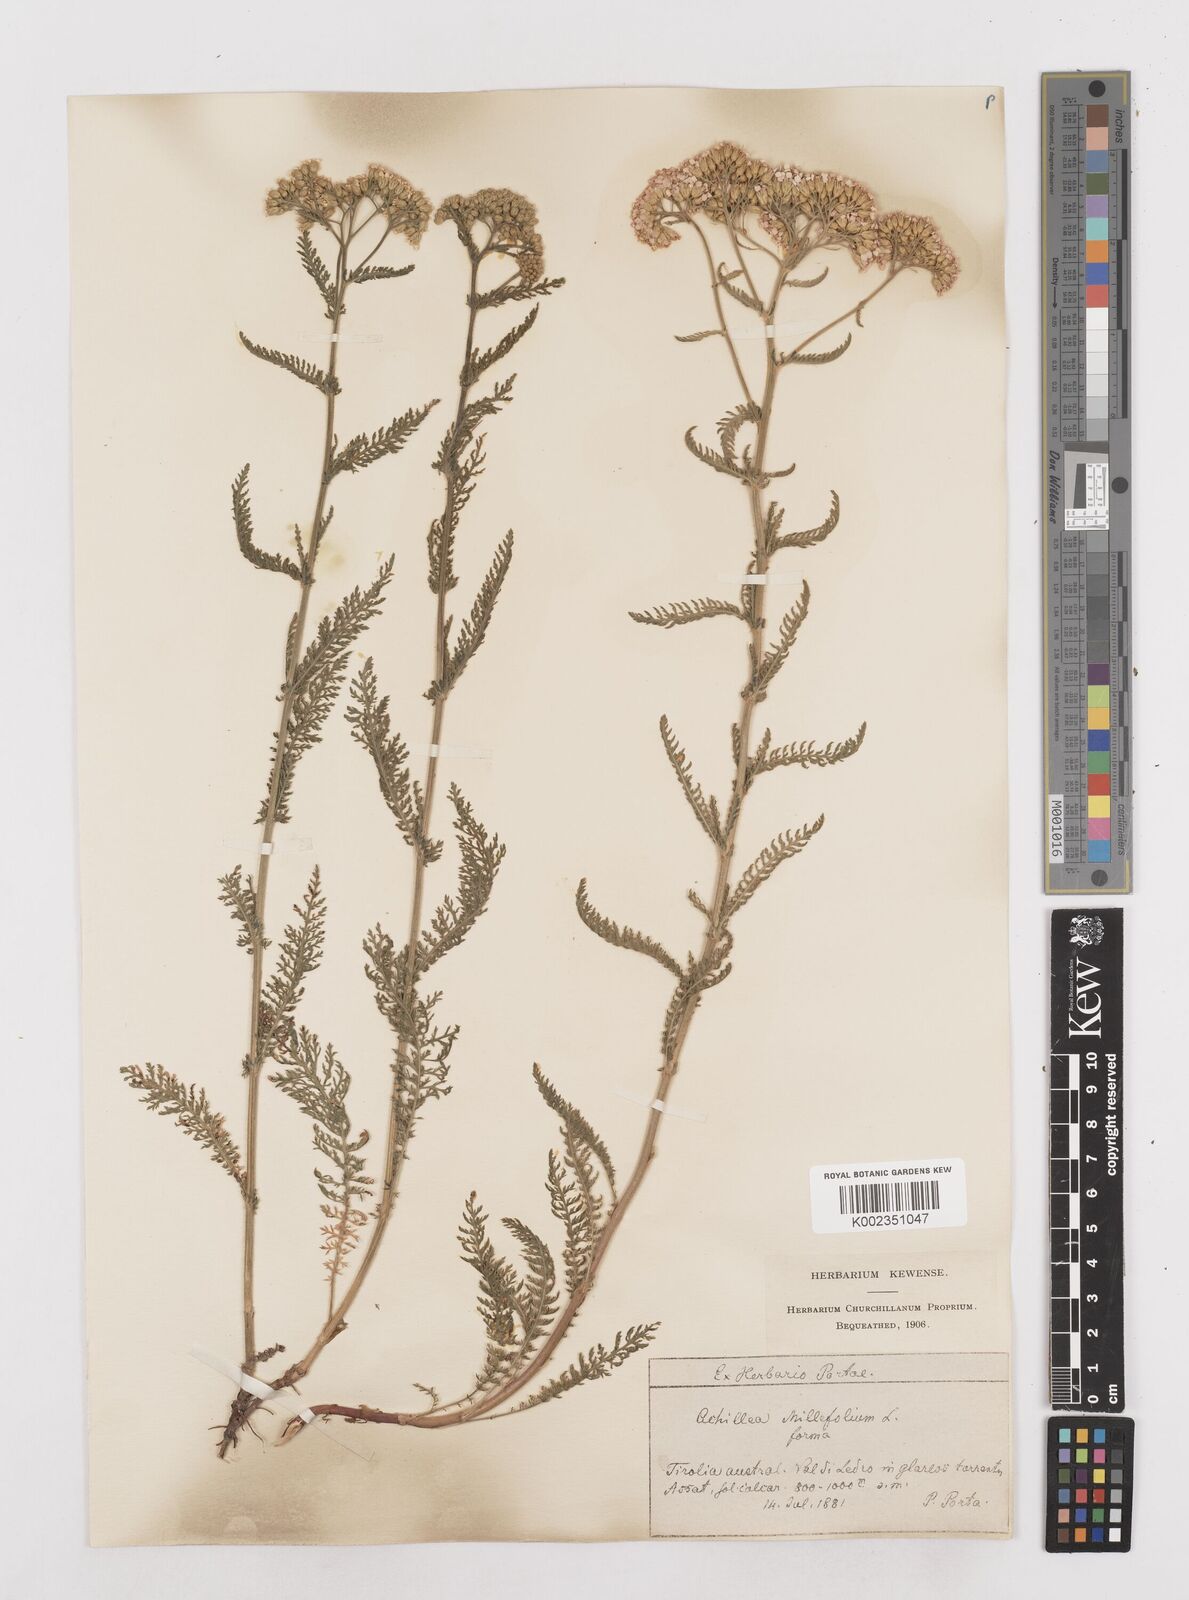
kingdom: Plantae
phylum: Tracheophyta
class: Magnoliopsida
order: Asterales
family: Asteraceae
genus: Achillea
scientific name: Achillea millefolium
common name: Yarrow
